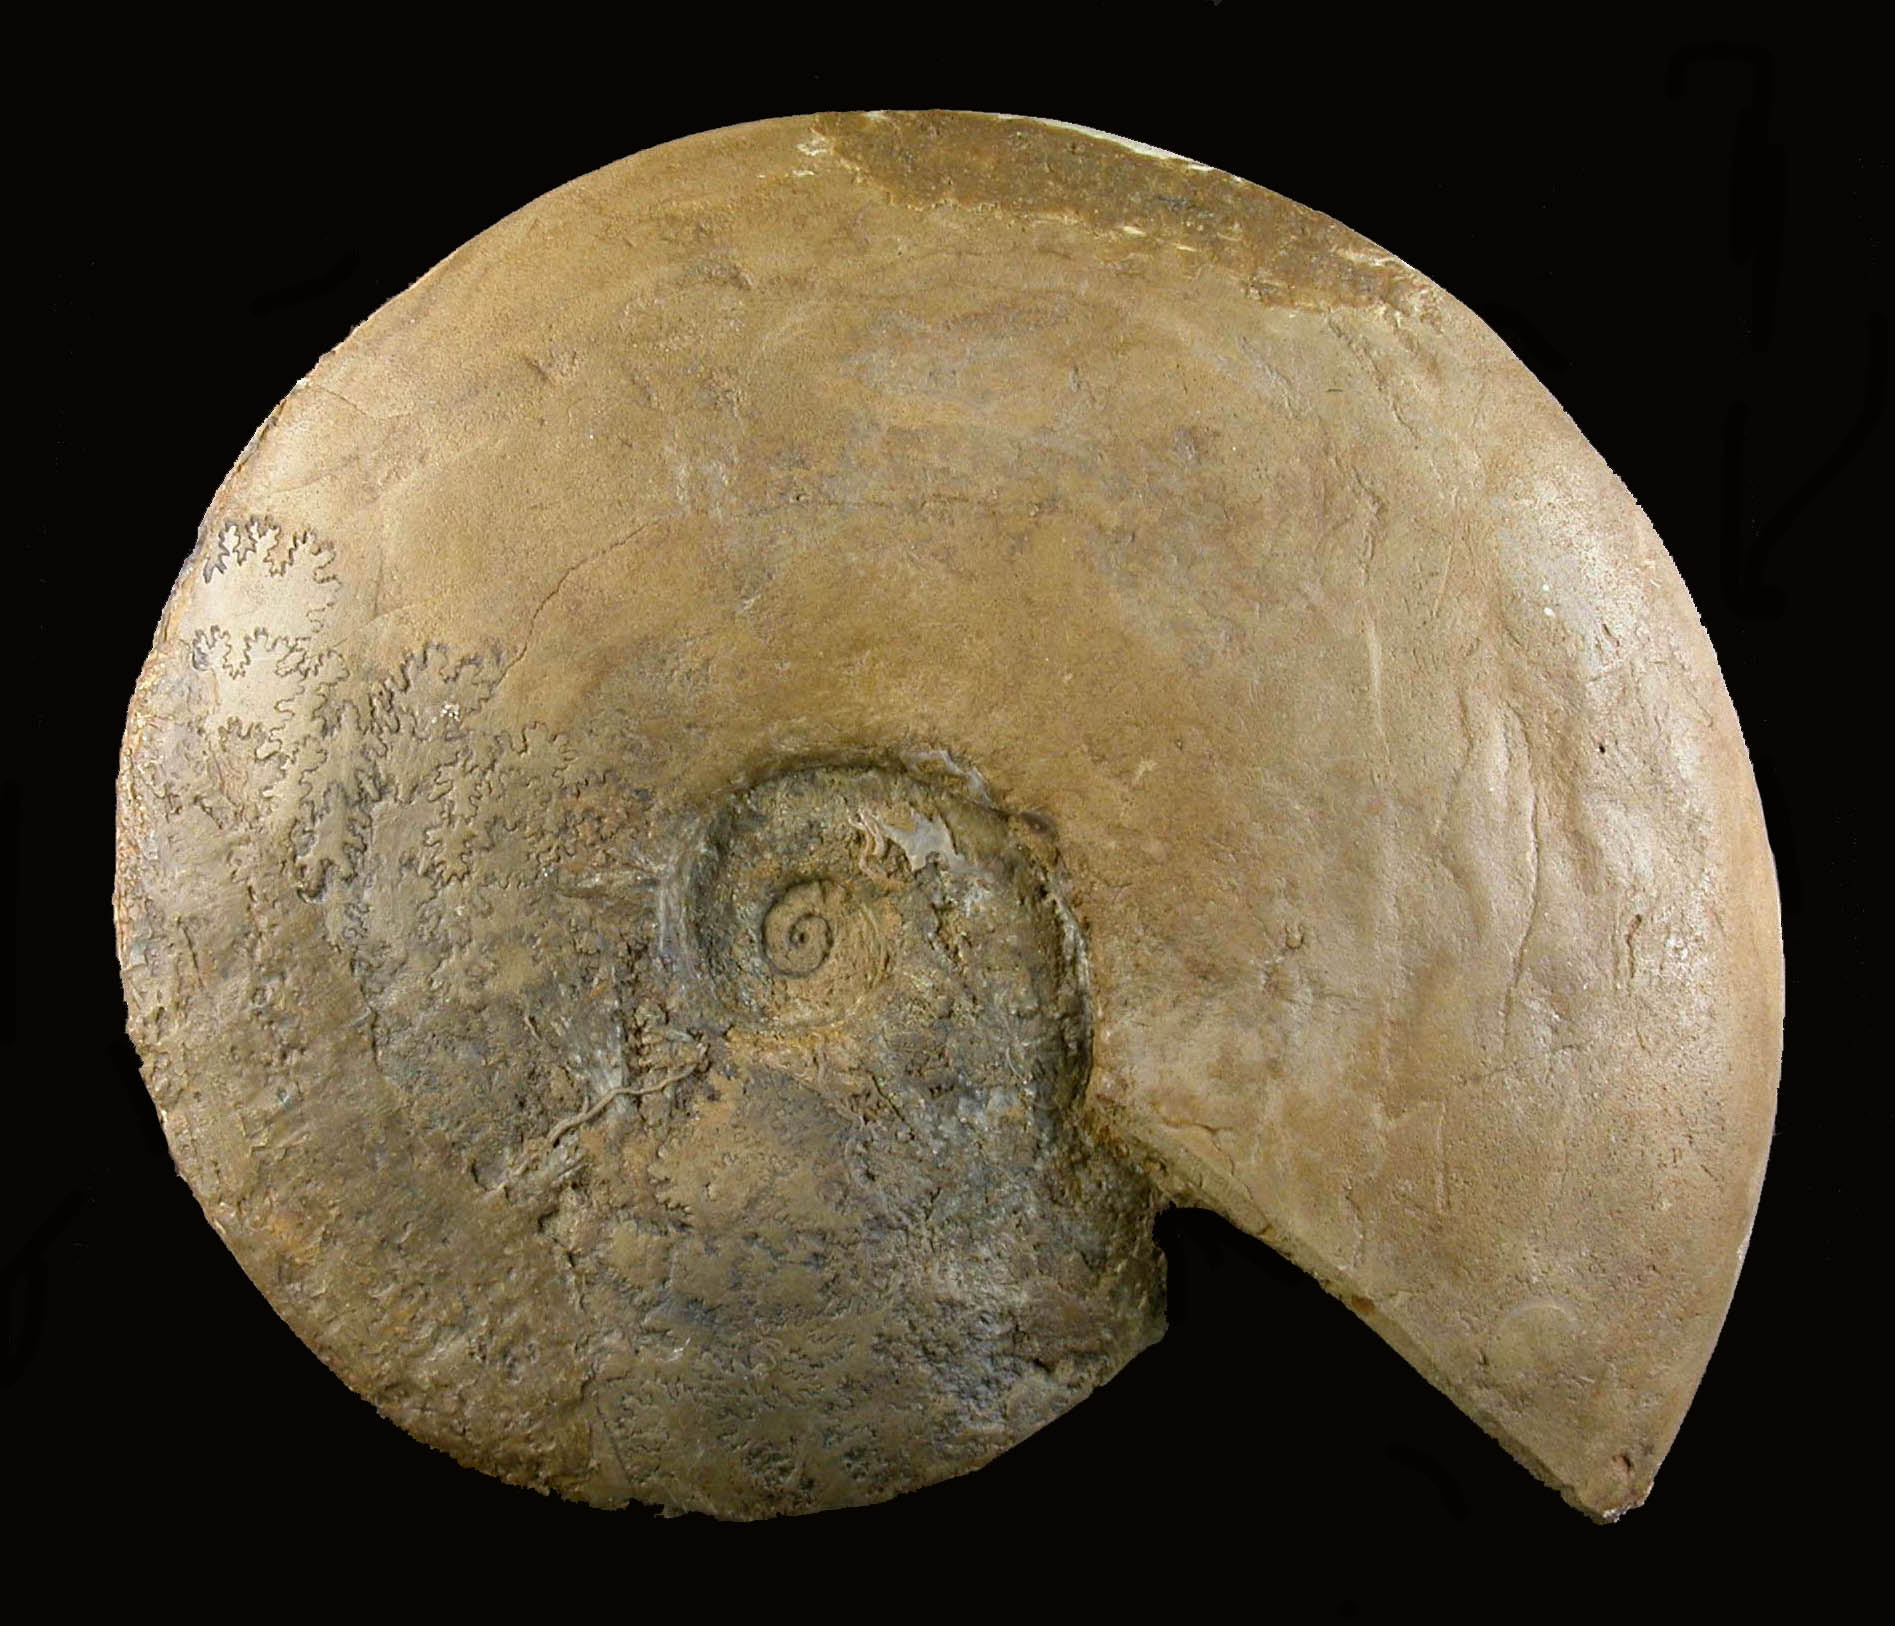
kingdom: Animalia
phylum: Mollusca
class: Cephalopoda
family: Sonniniidae
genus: Dorsetensia
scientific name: Dorsetensia liostraca
